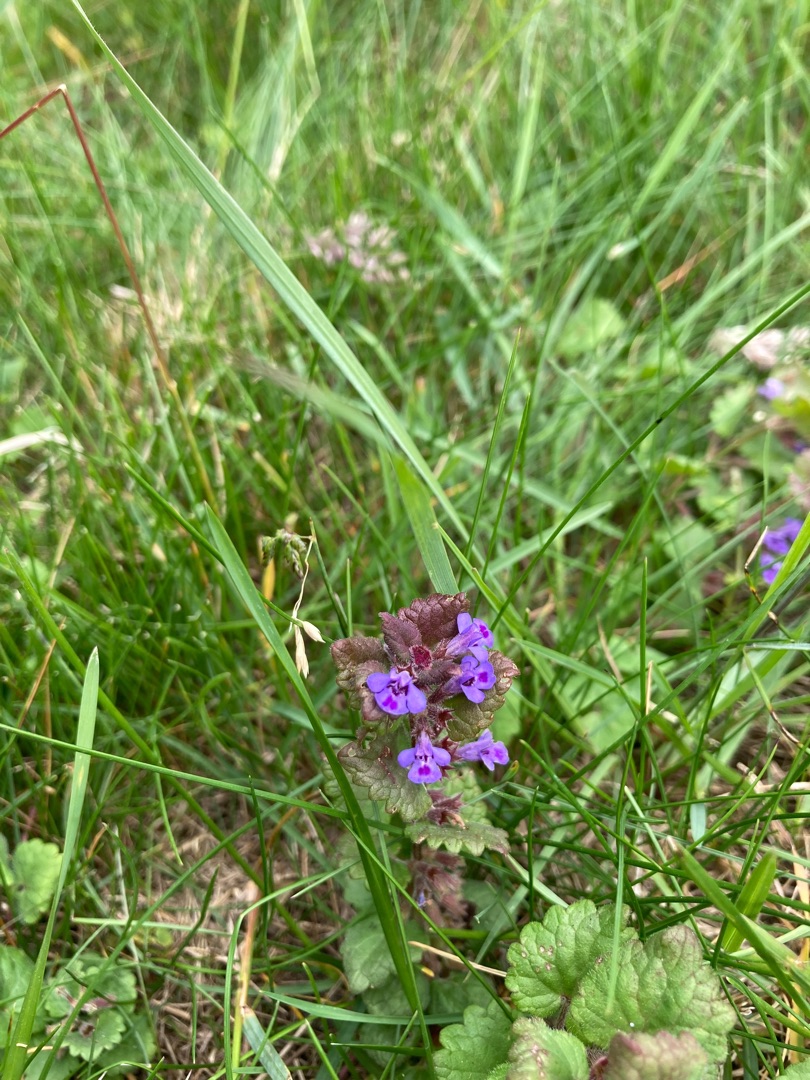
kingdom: Plantae
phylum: Tracheophyta
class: Magnoliopsida
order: Lamiales
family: Lamiaceae
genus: Glechoma
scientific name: Glechoma hederacea
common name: Korsknap
